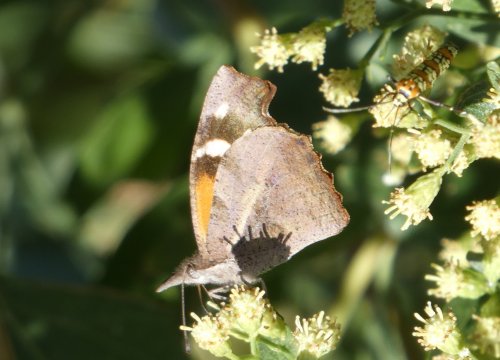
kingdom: Animalia
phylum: Arthropoda
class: Insecta
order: Lepidoptera
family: Nymphalidae
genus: Libytheana
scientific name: Libytheana carinenta
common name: American Snout
